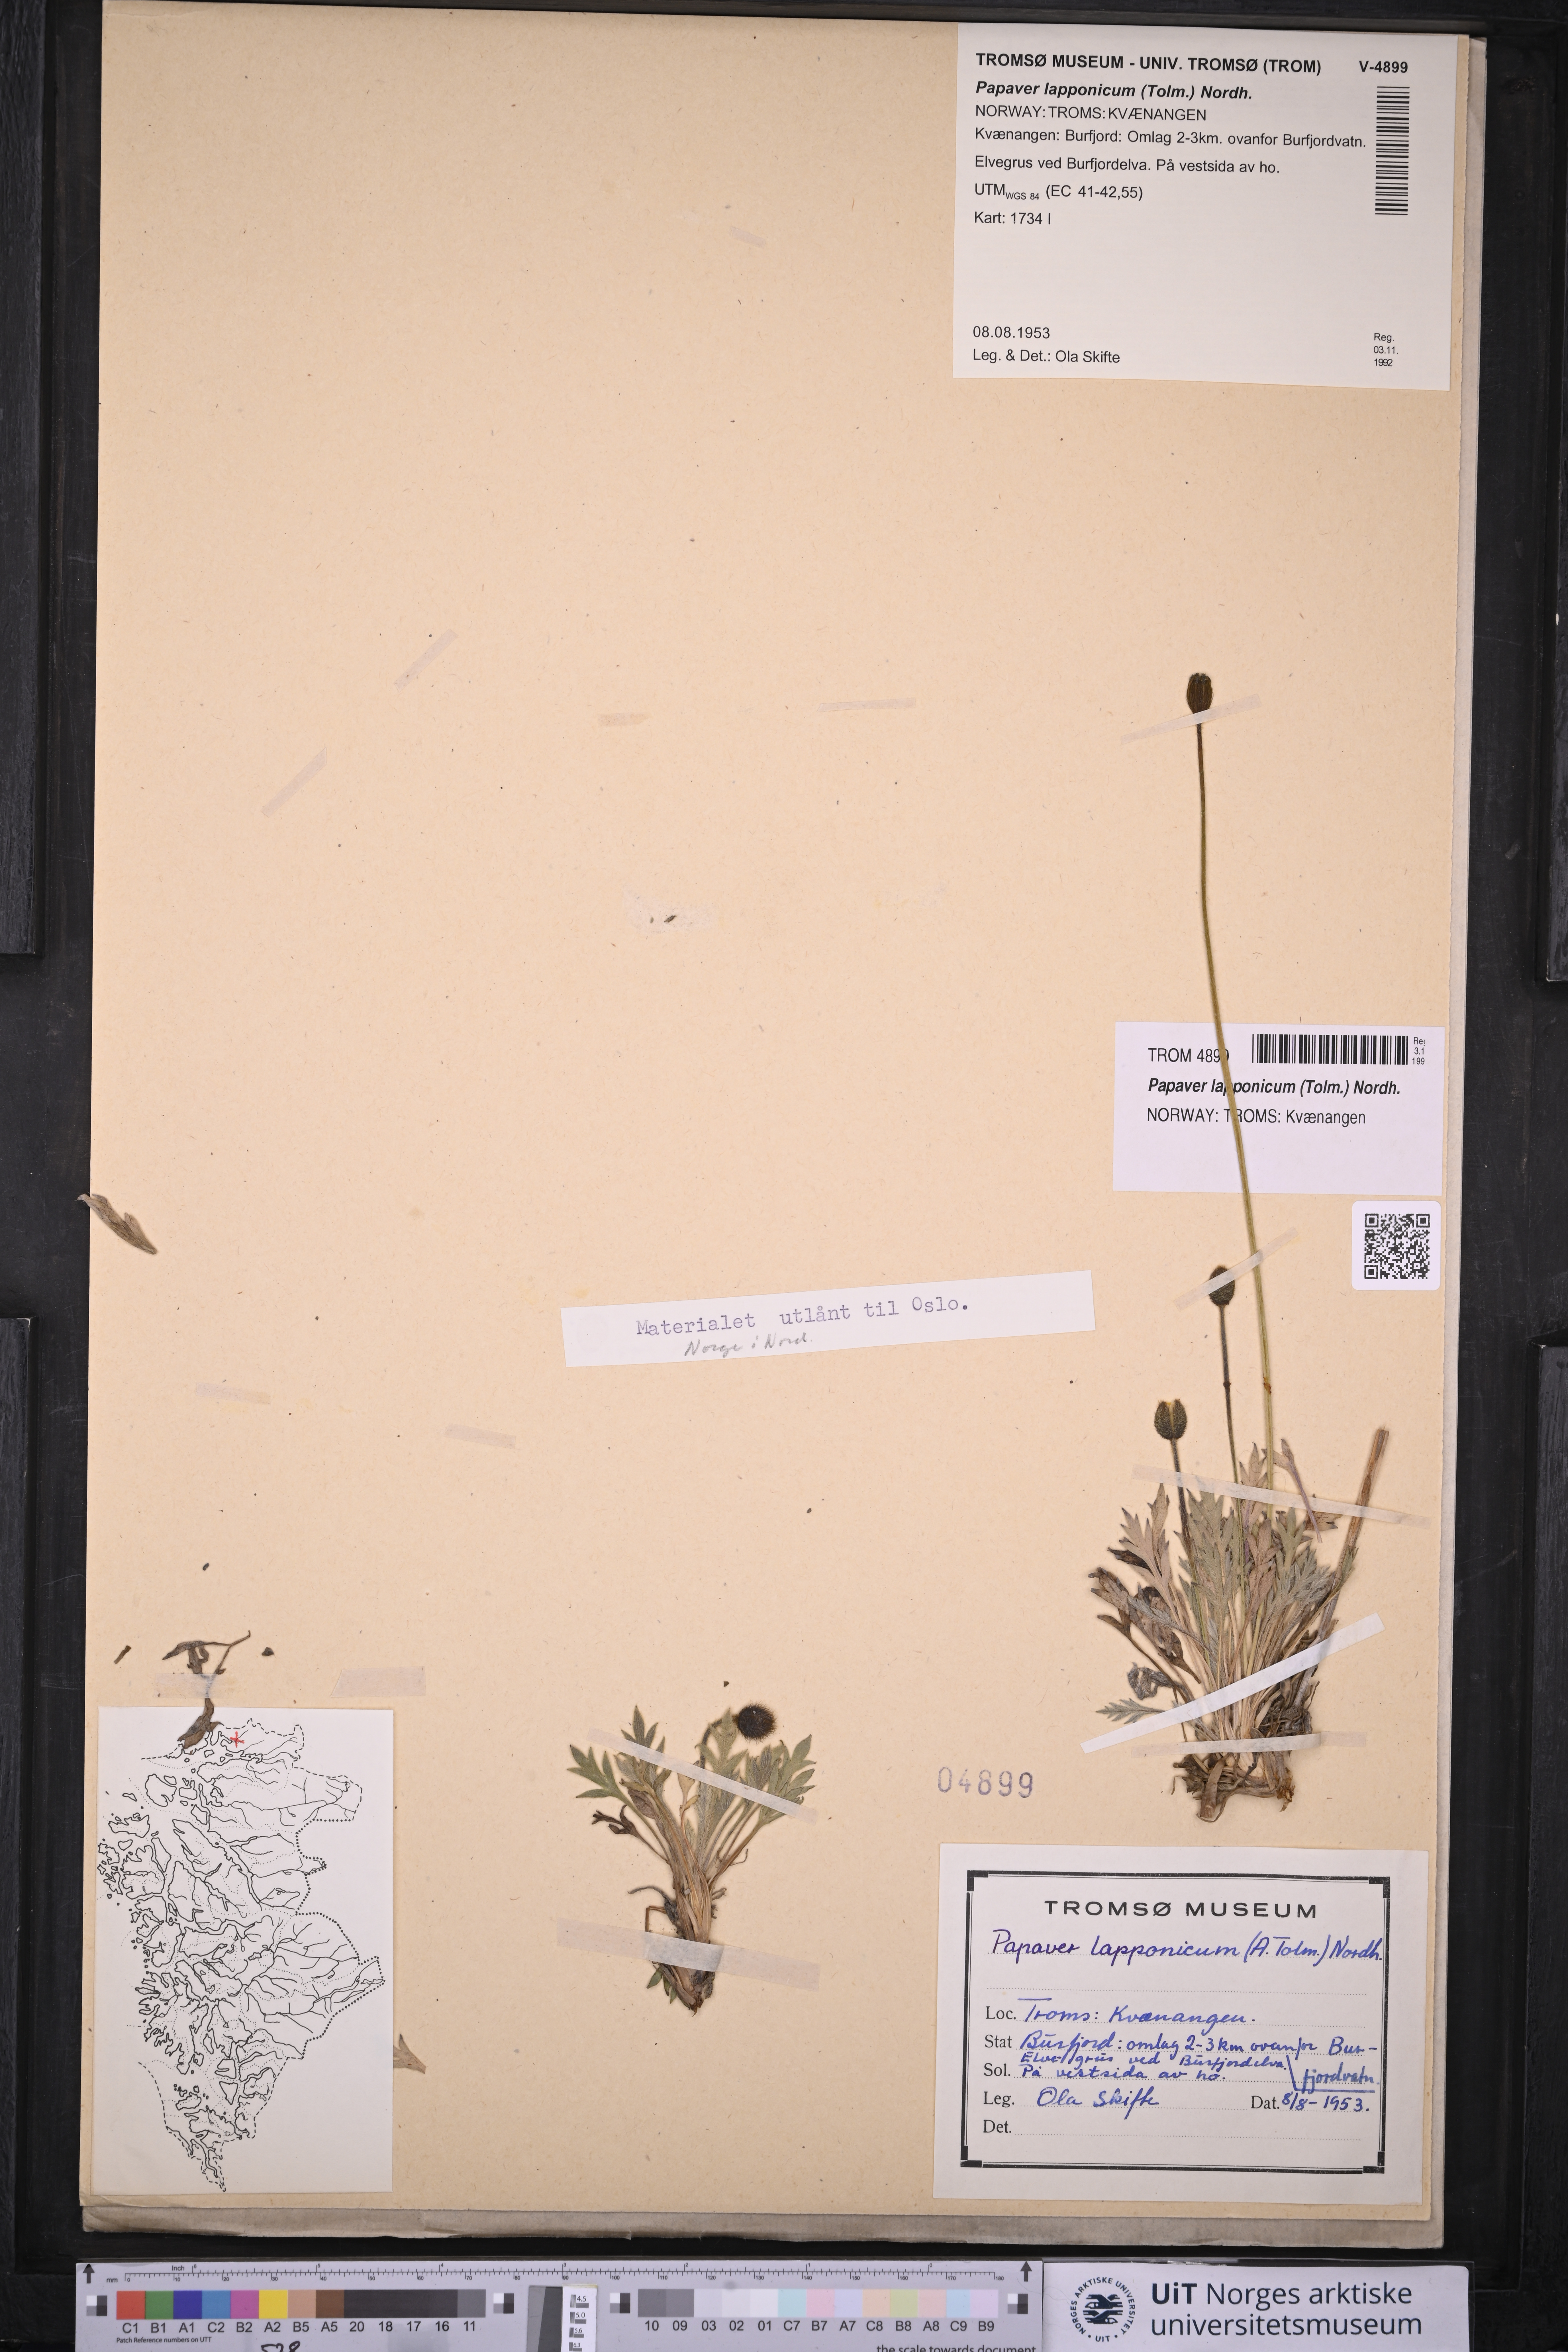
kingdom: Plantae
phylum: Tracheophyta
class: Magnoliopsida
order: Ranunculales
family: Papaveraceae
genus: Papaver
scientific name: Papaver lapponicum
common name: Lapland poppy
